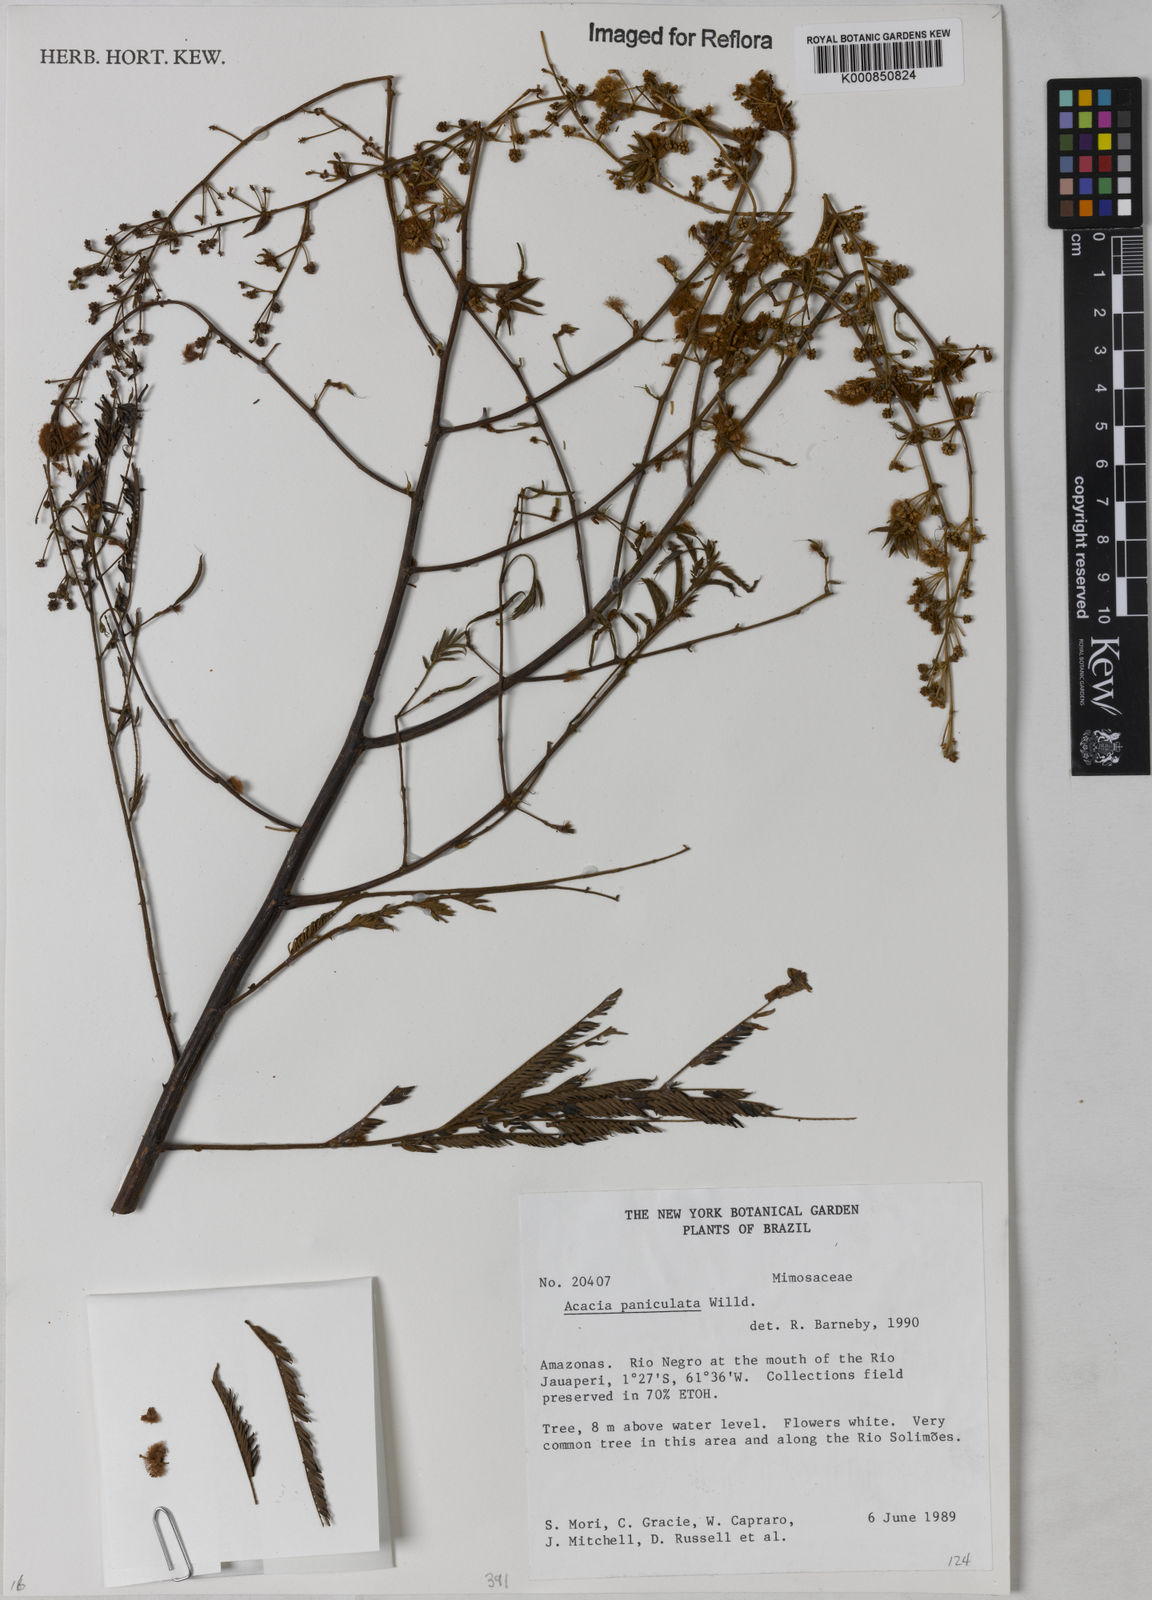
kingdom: Plantae
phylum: Tracheophyta
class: Magnoliopsida
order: Fabales
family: Fabaceae
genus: Senegalia
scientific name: Senegalia tenuifolia
